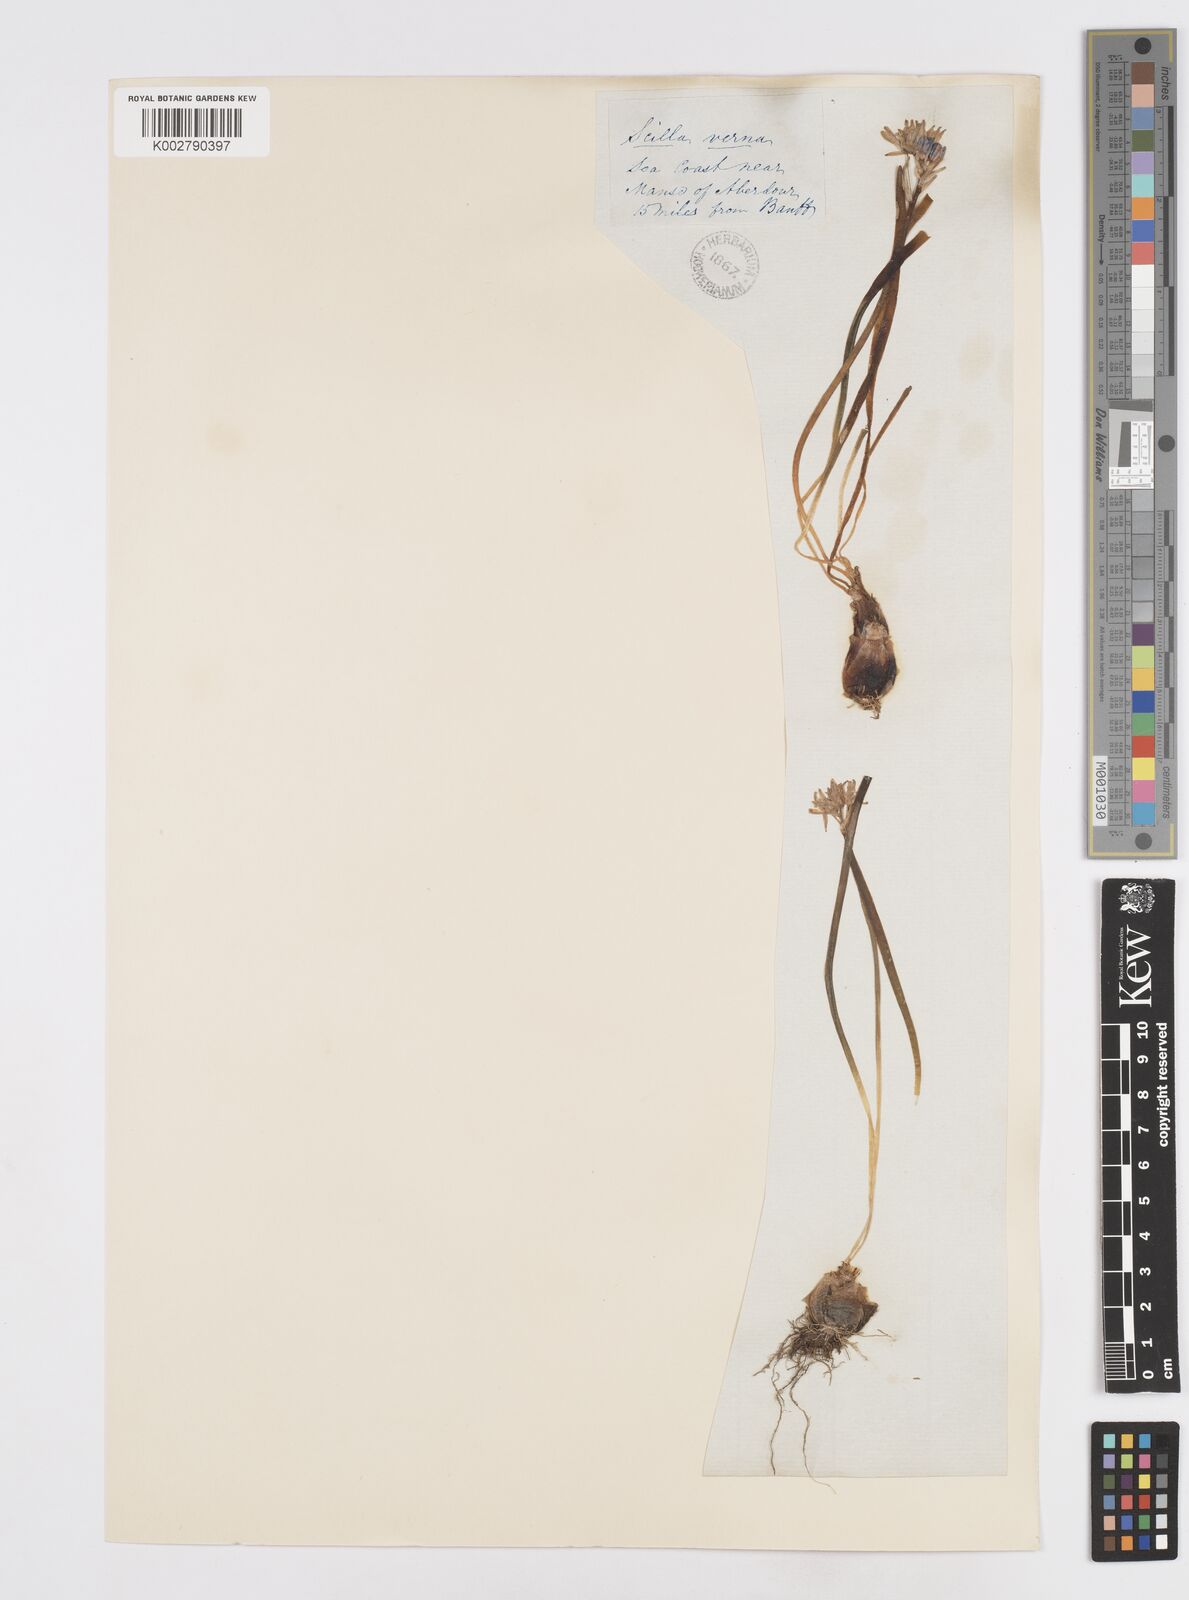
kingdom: Plantae
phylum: Tracheophyta
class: Liliopsida
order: Asparagales
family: Asparagaceae
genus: Scilla
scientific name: Scilla verna
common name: Spring squill
